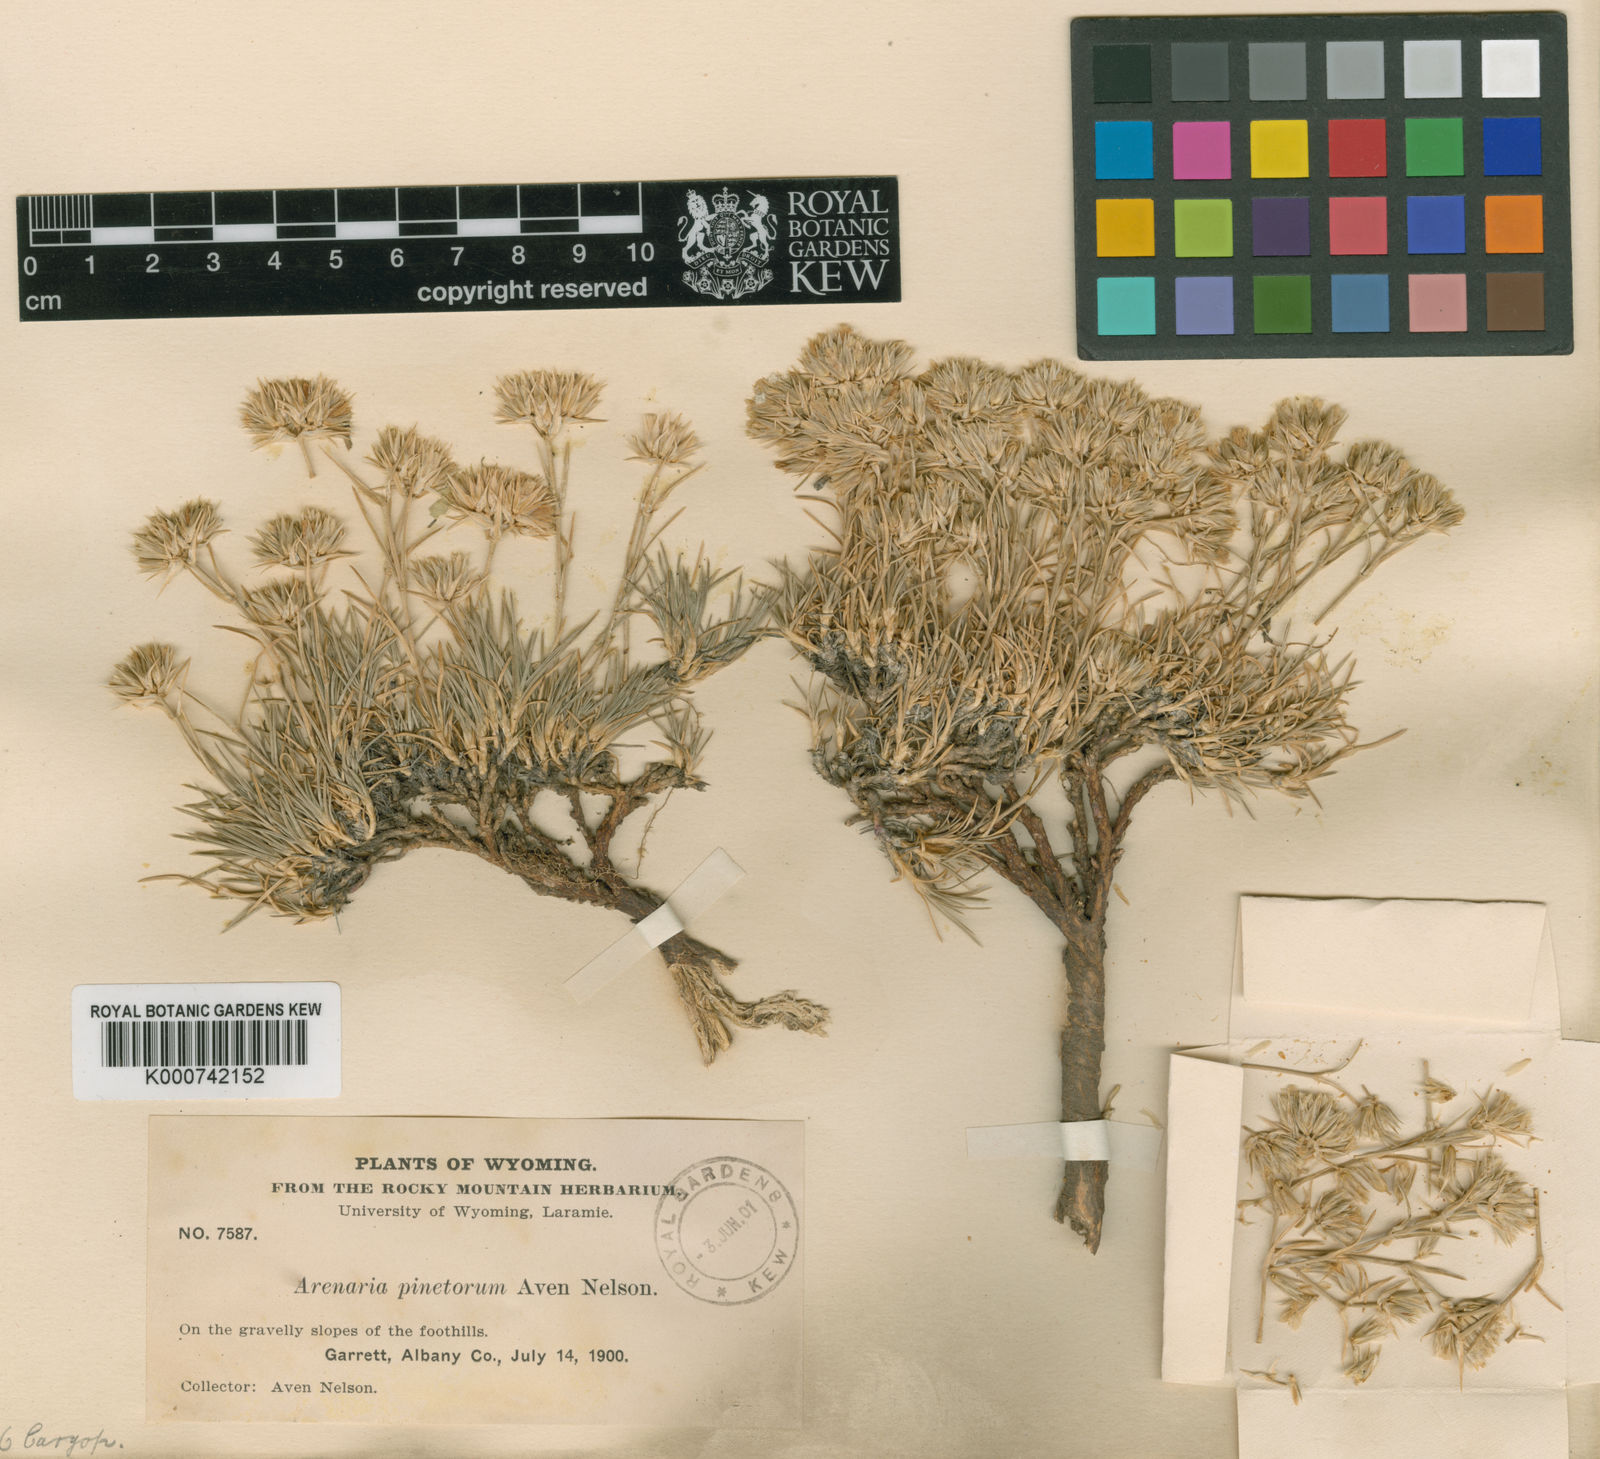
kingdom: Plantae
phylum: Tracheophyta
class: Magnoliopsida
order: Caryophyllales
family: Caryophyllaceae
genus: Eremogone
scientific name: Eremogone hookeri
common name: Hooker's sandwort
